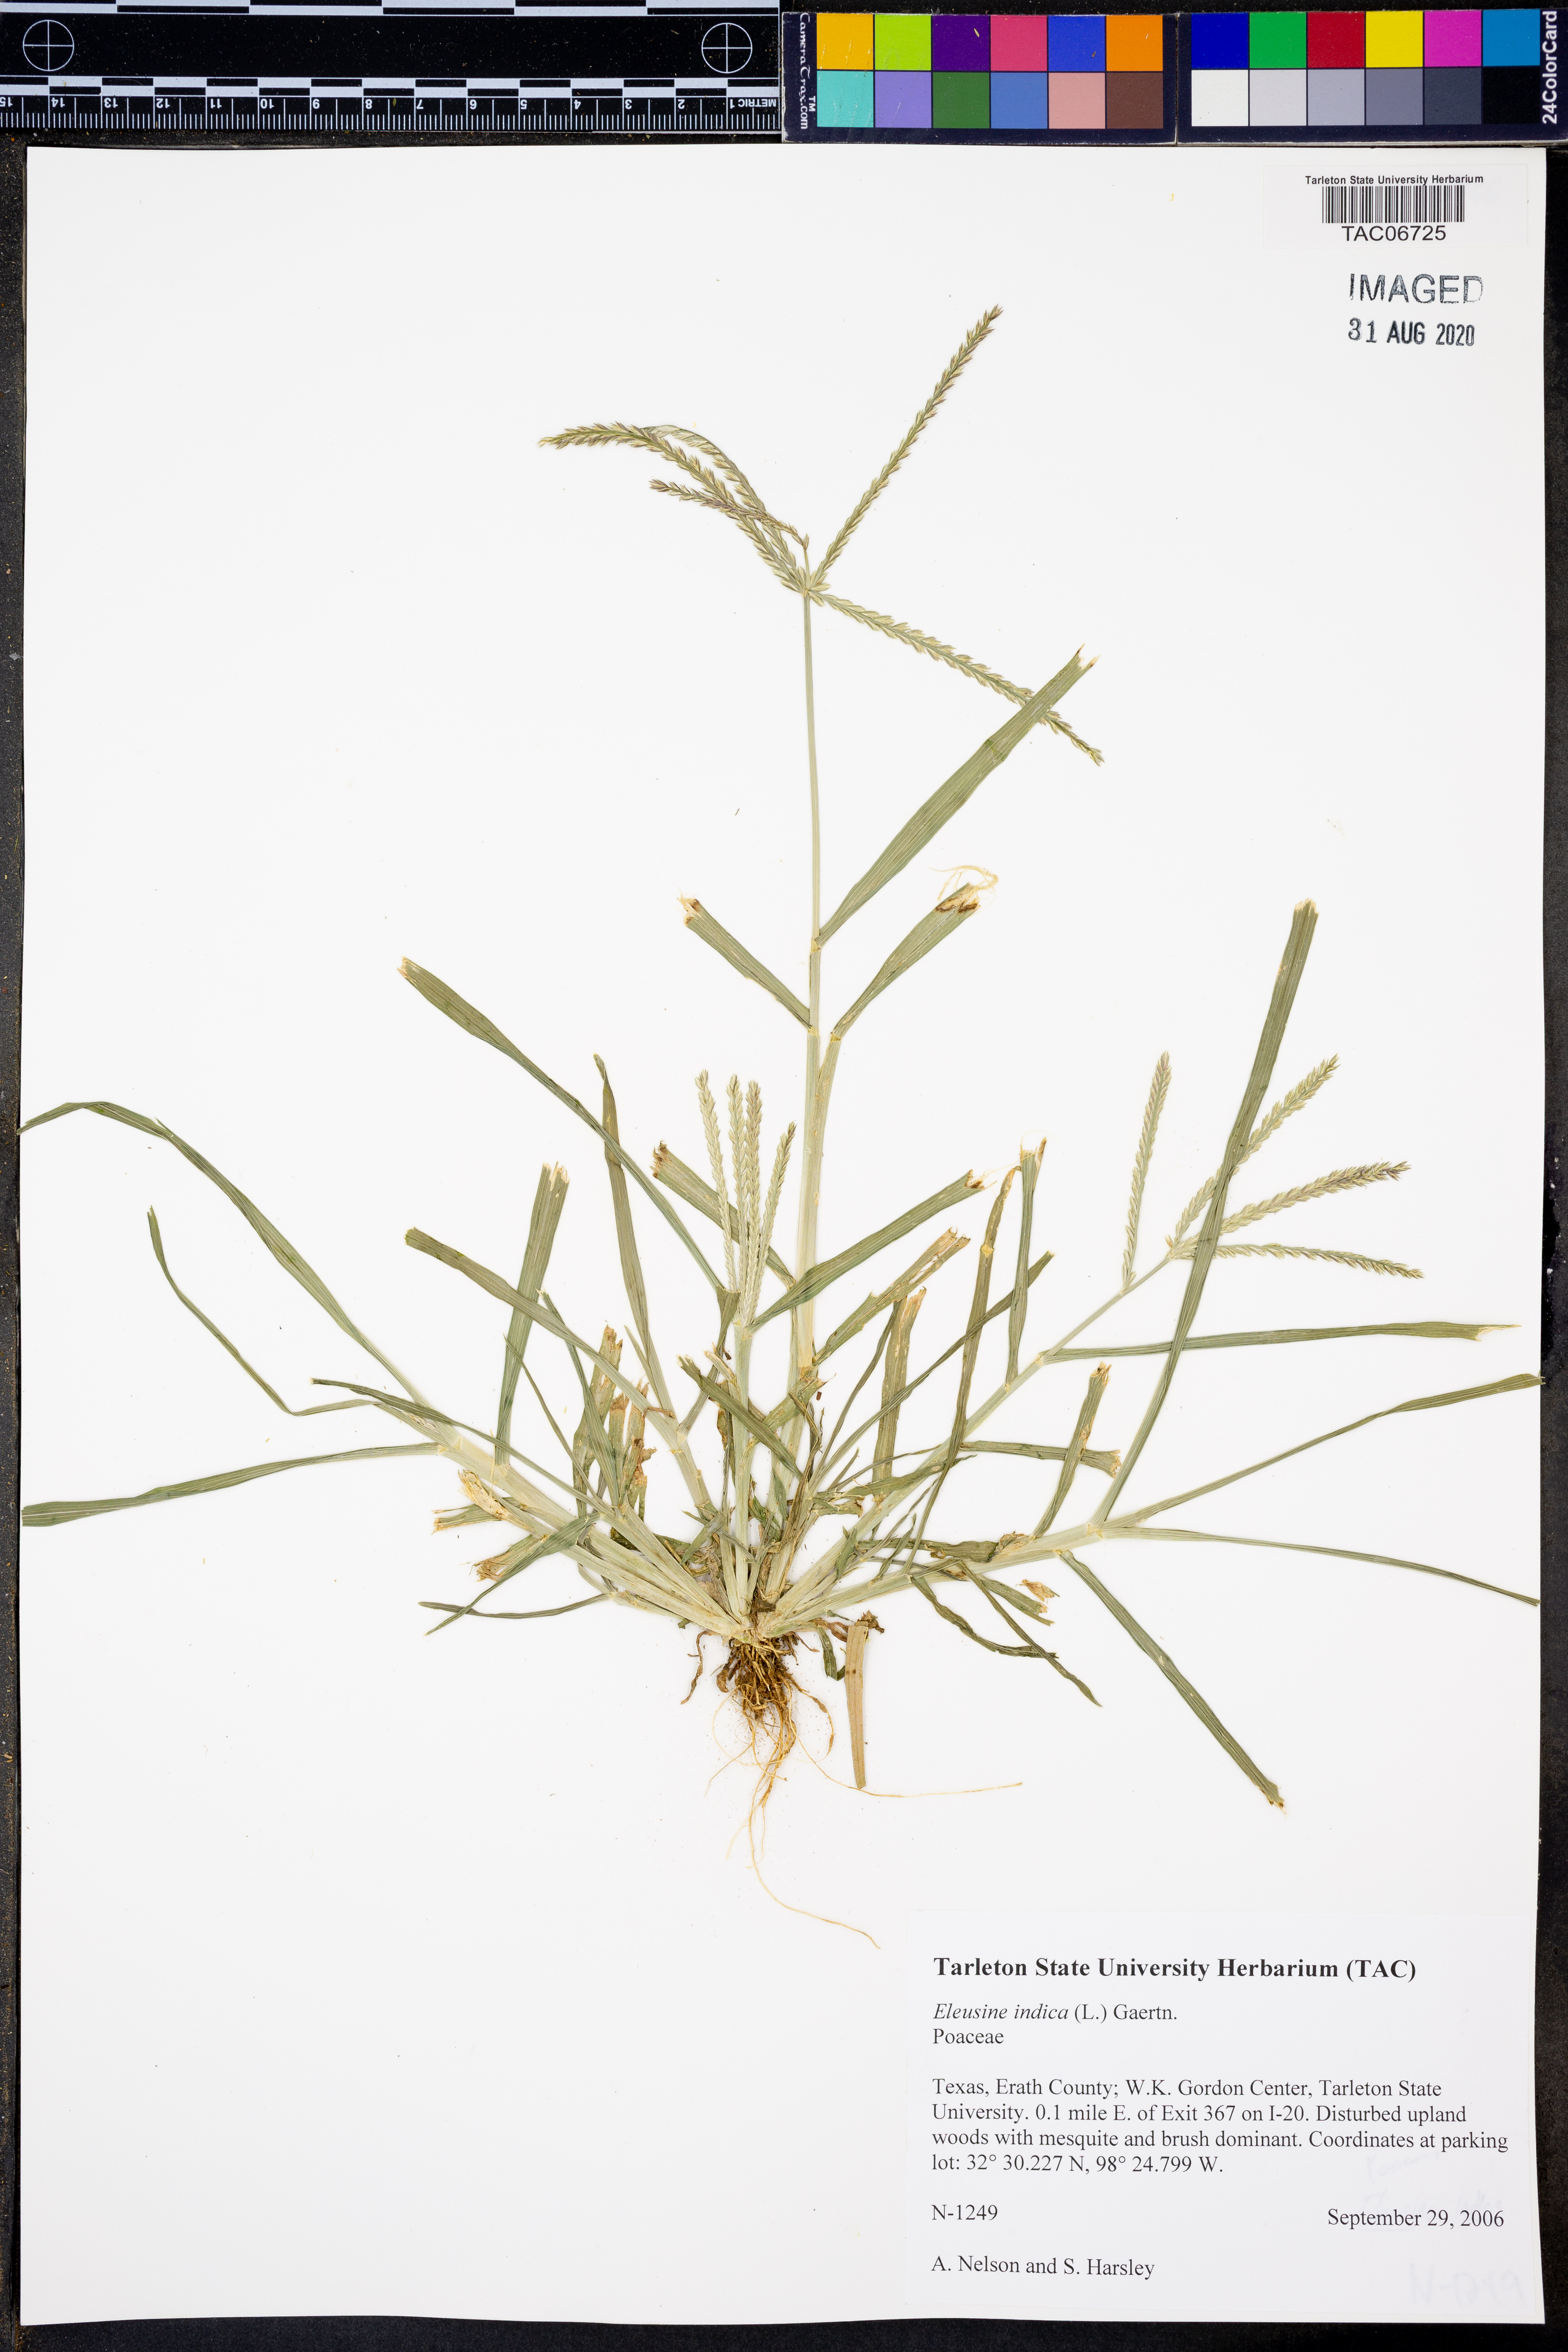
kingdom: Plantae
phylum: Tracheophyta
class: Liliopsida
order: Poales
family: Poaceae
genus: Eleusine
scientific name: Eleusine indica
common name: Yard-grass
